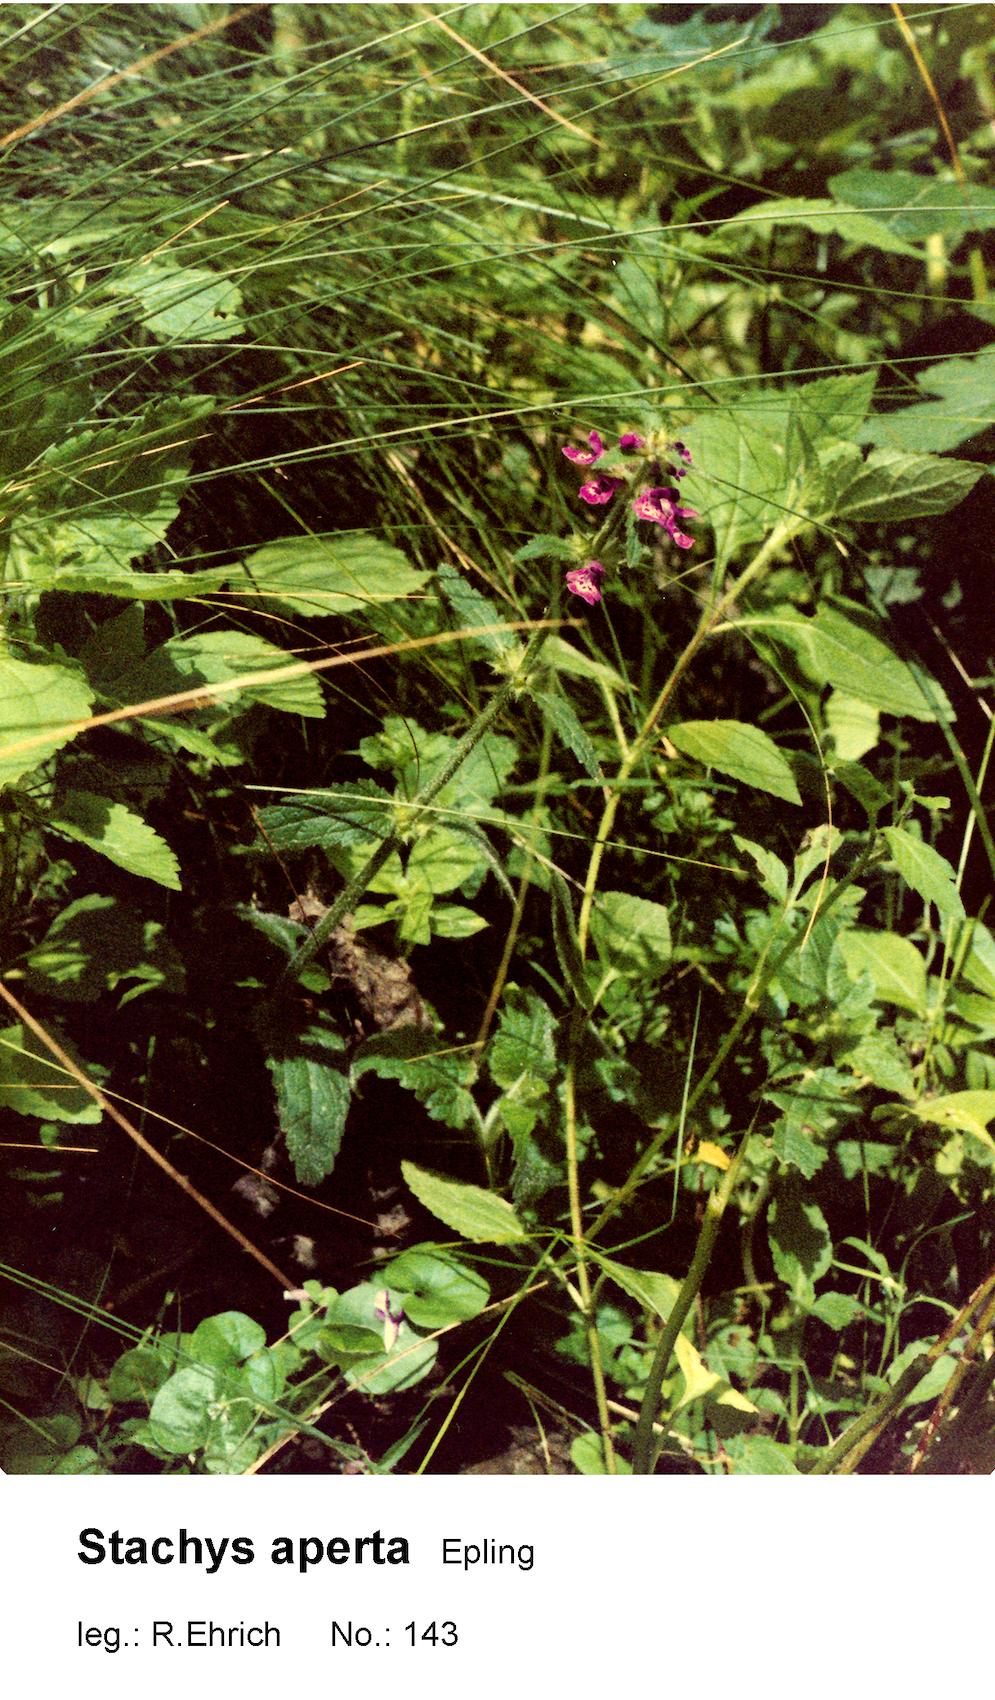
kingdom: Plantae
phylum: Tracheophyta
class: Magnoliopsida
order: Lamiales
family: Lamiaceae
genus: Stachys
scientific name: Stachys aperta
